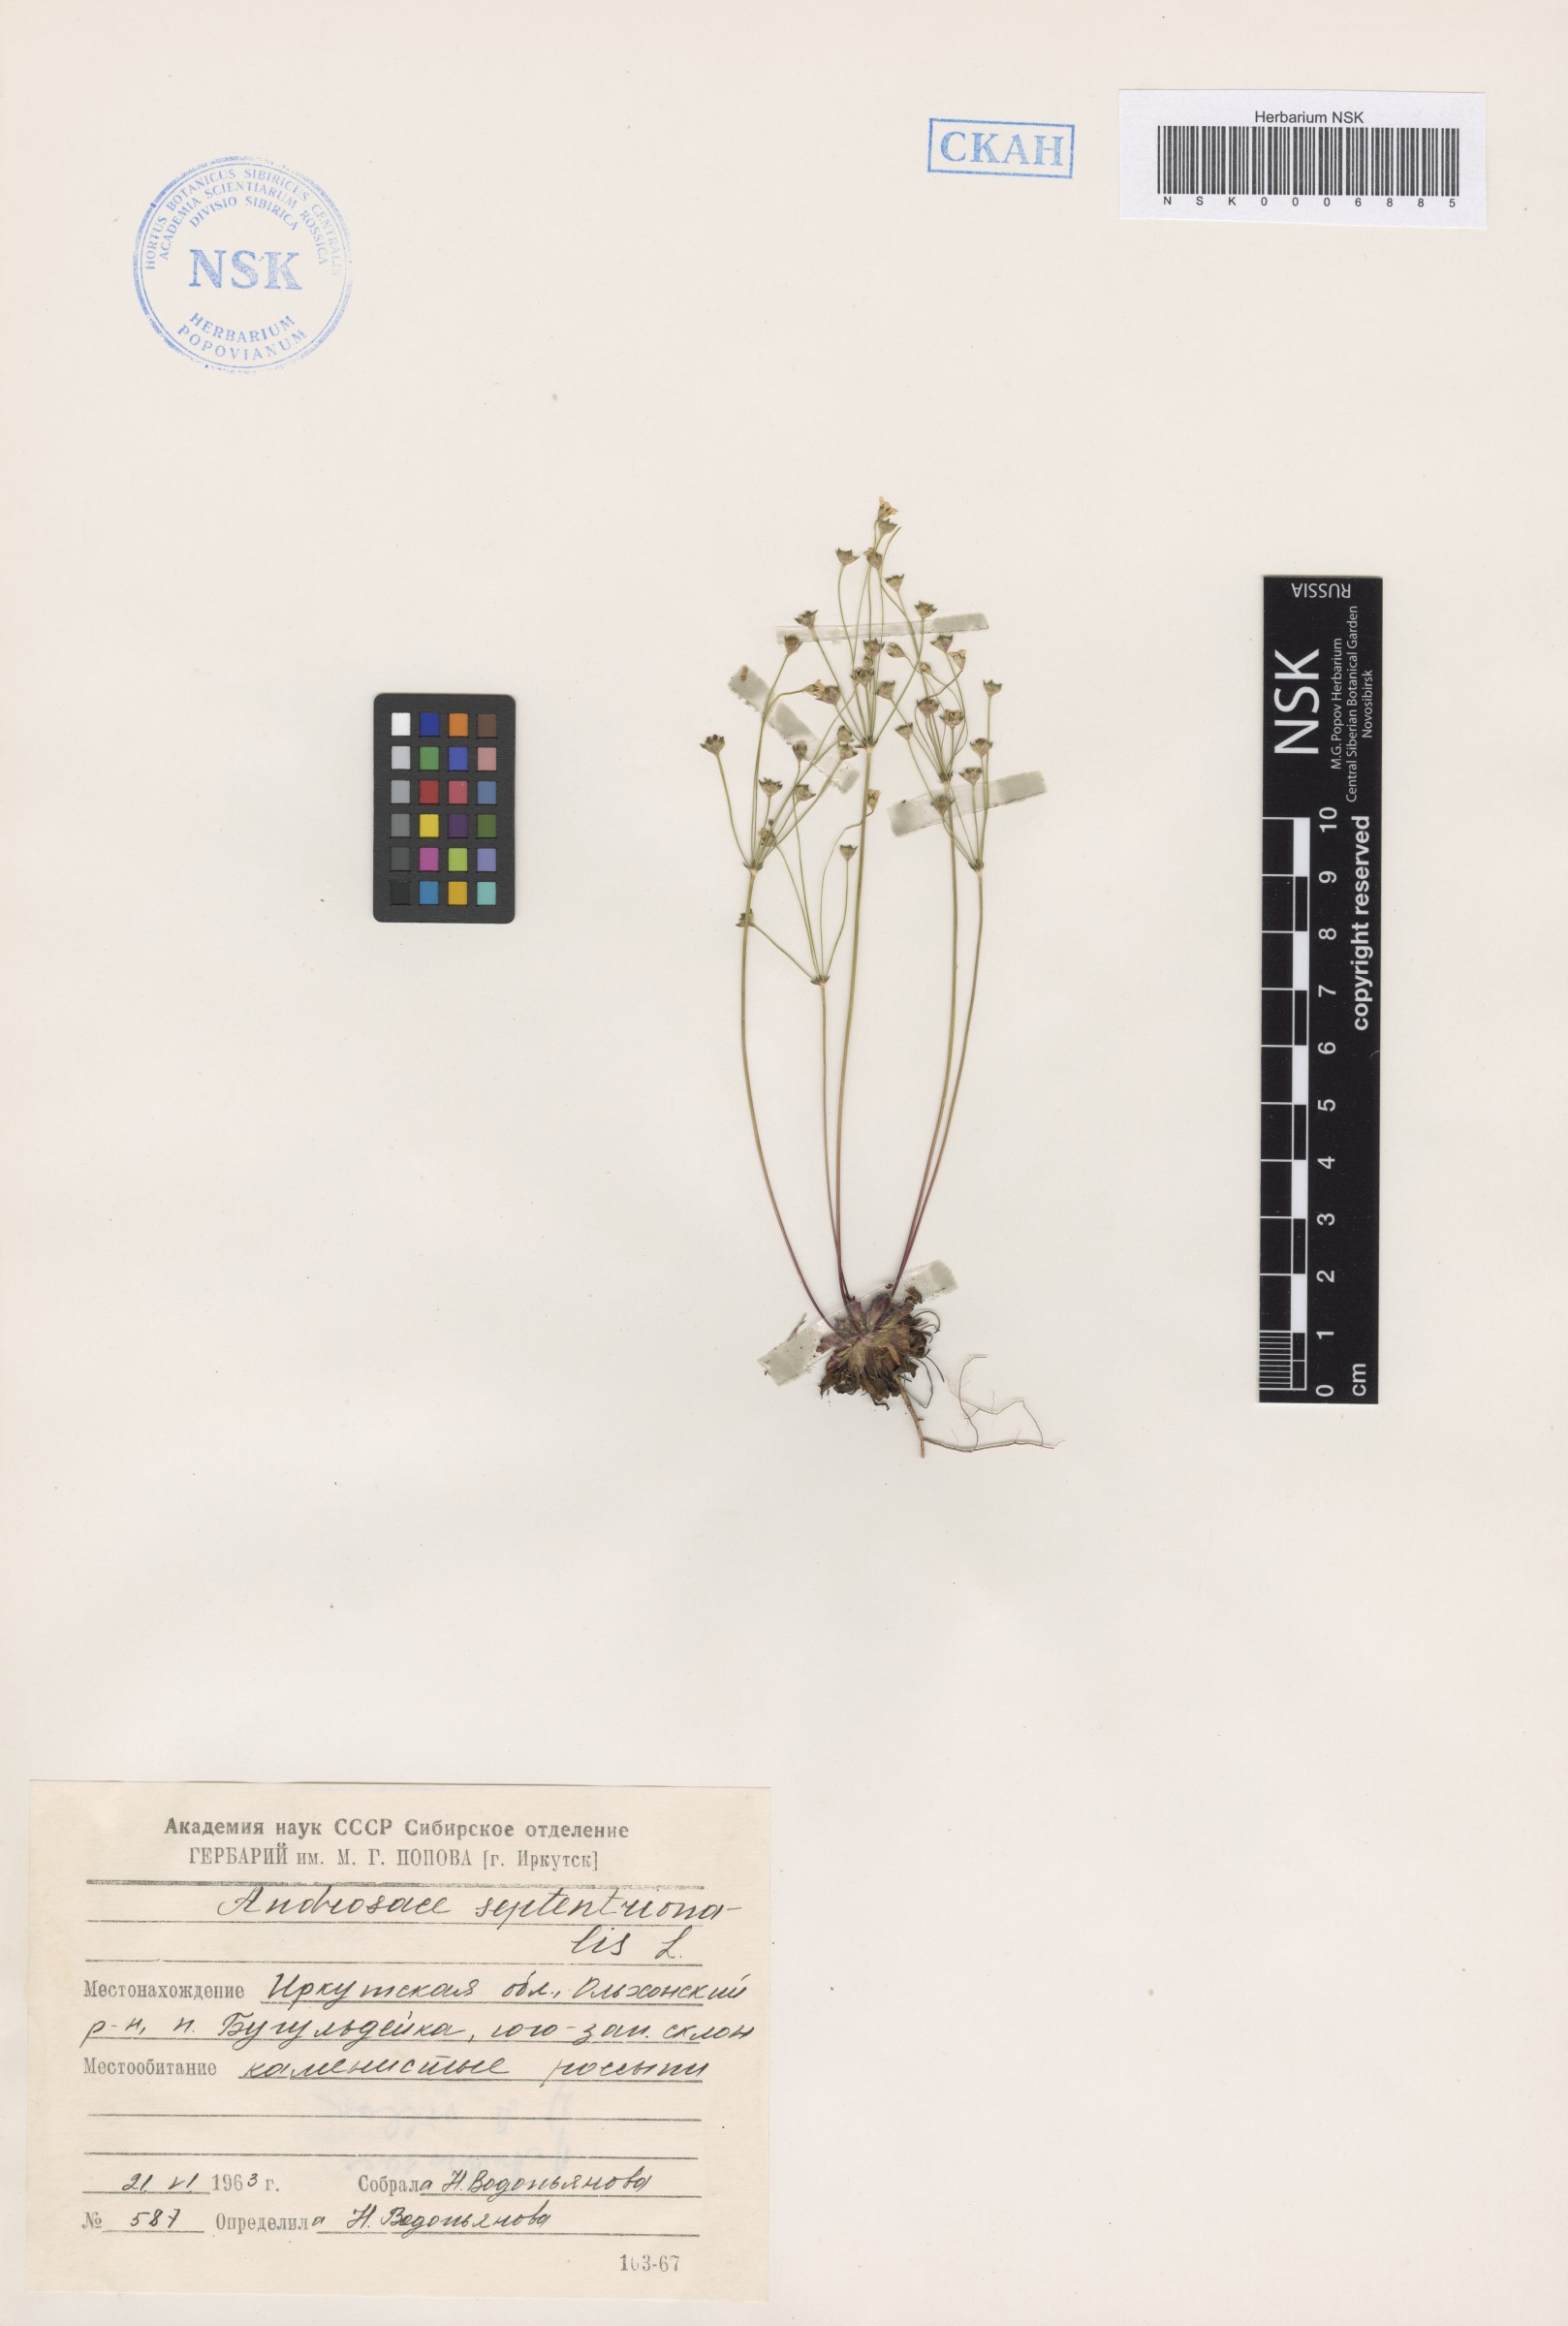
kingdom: Plantae
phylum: Tracheophyta
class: Magnoliopsida
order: Ericales
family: Primulaceae
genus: Androsace
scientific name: Androsace septentrionalis
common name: Hairy northern fairy-candelabra
